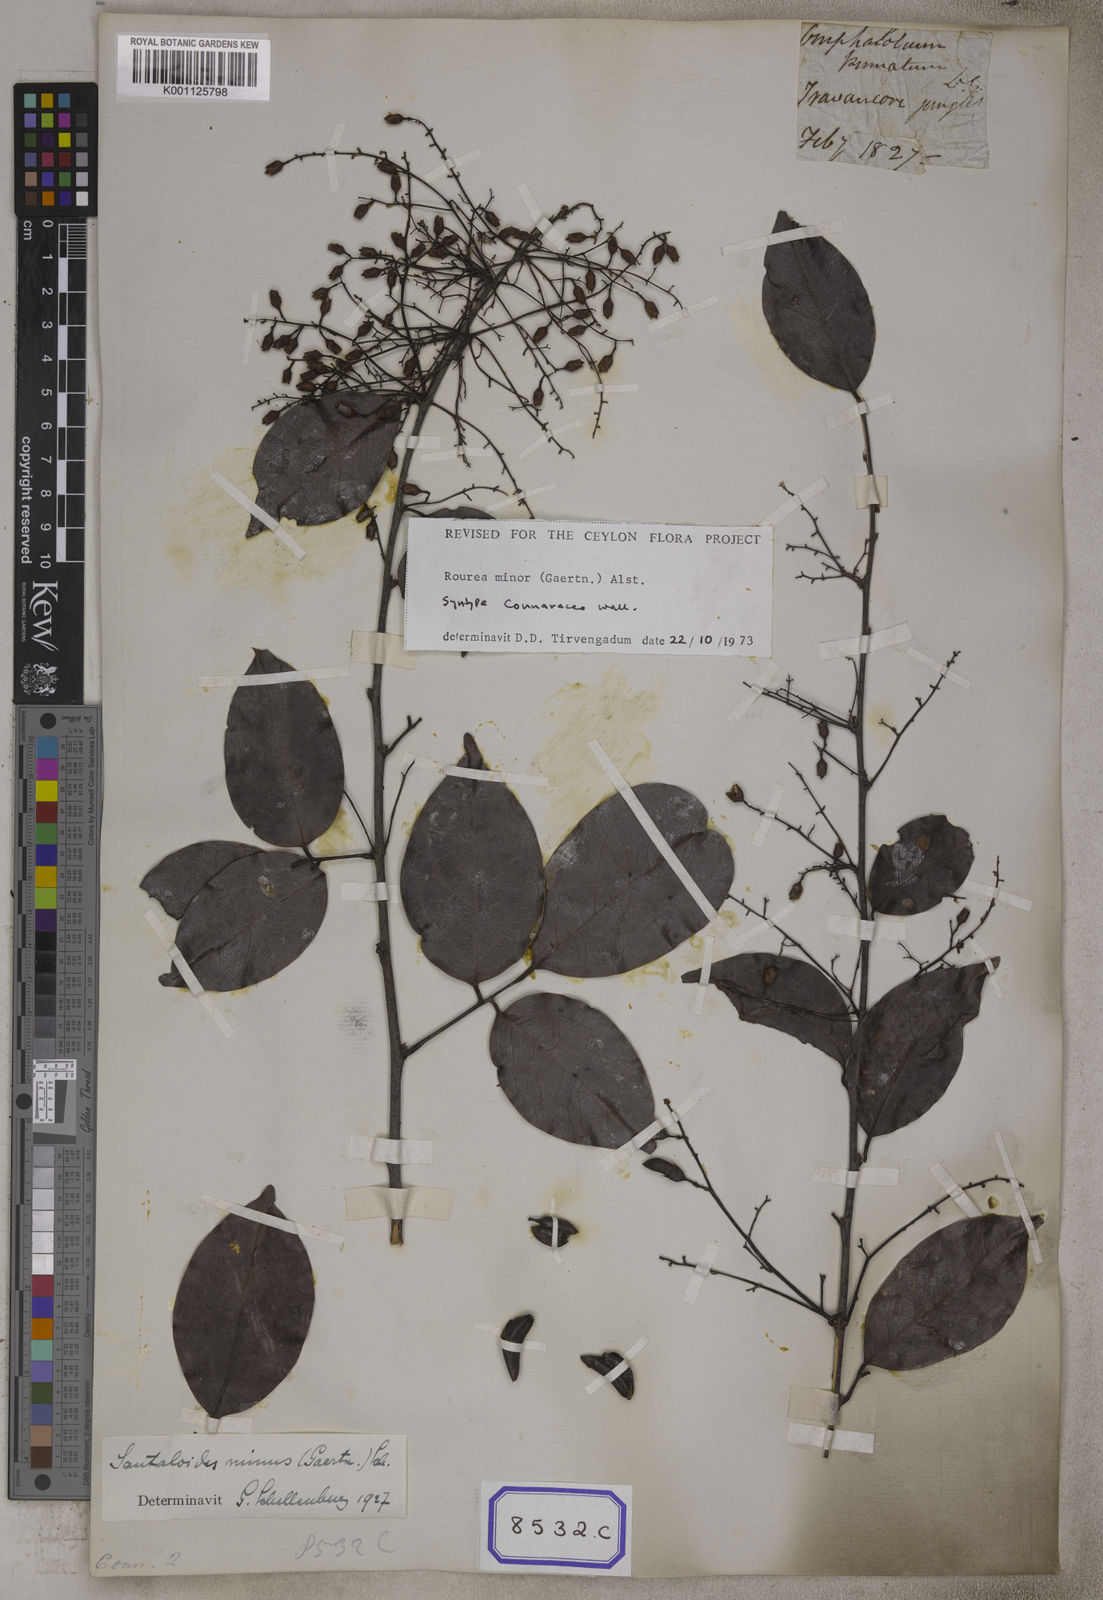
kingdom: Plantae
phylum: Tracheophyta
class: Magnoliopsida
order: Oxalidales
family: Connaraceae
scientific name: Connaraceae
